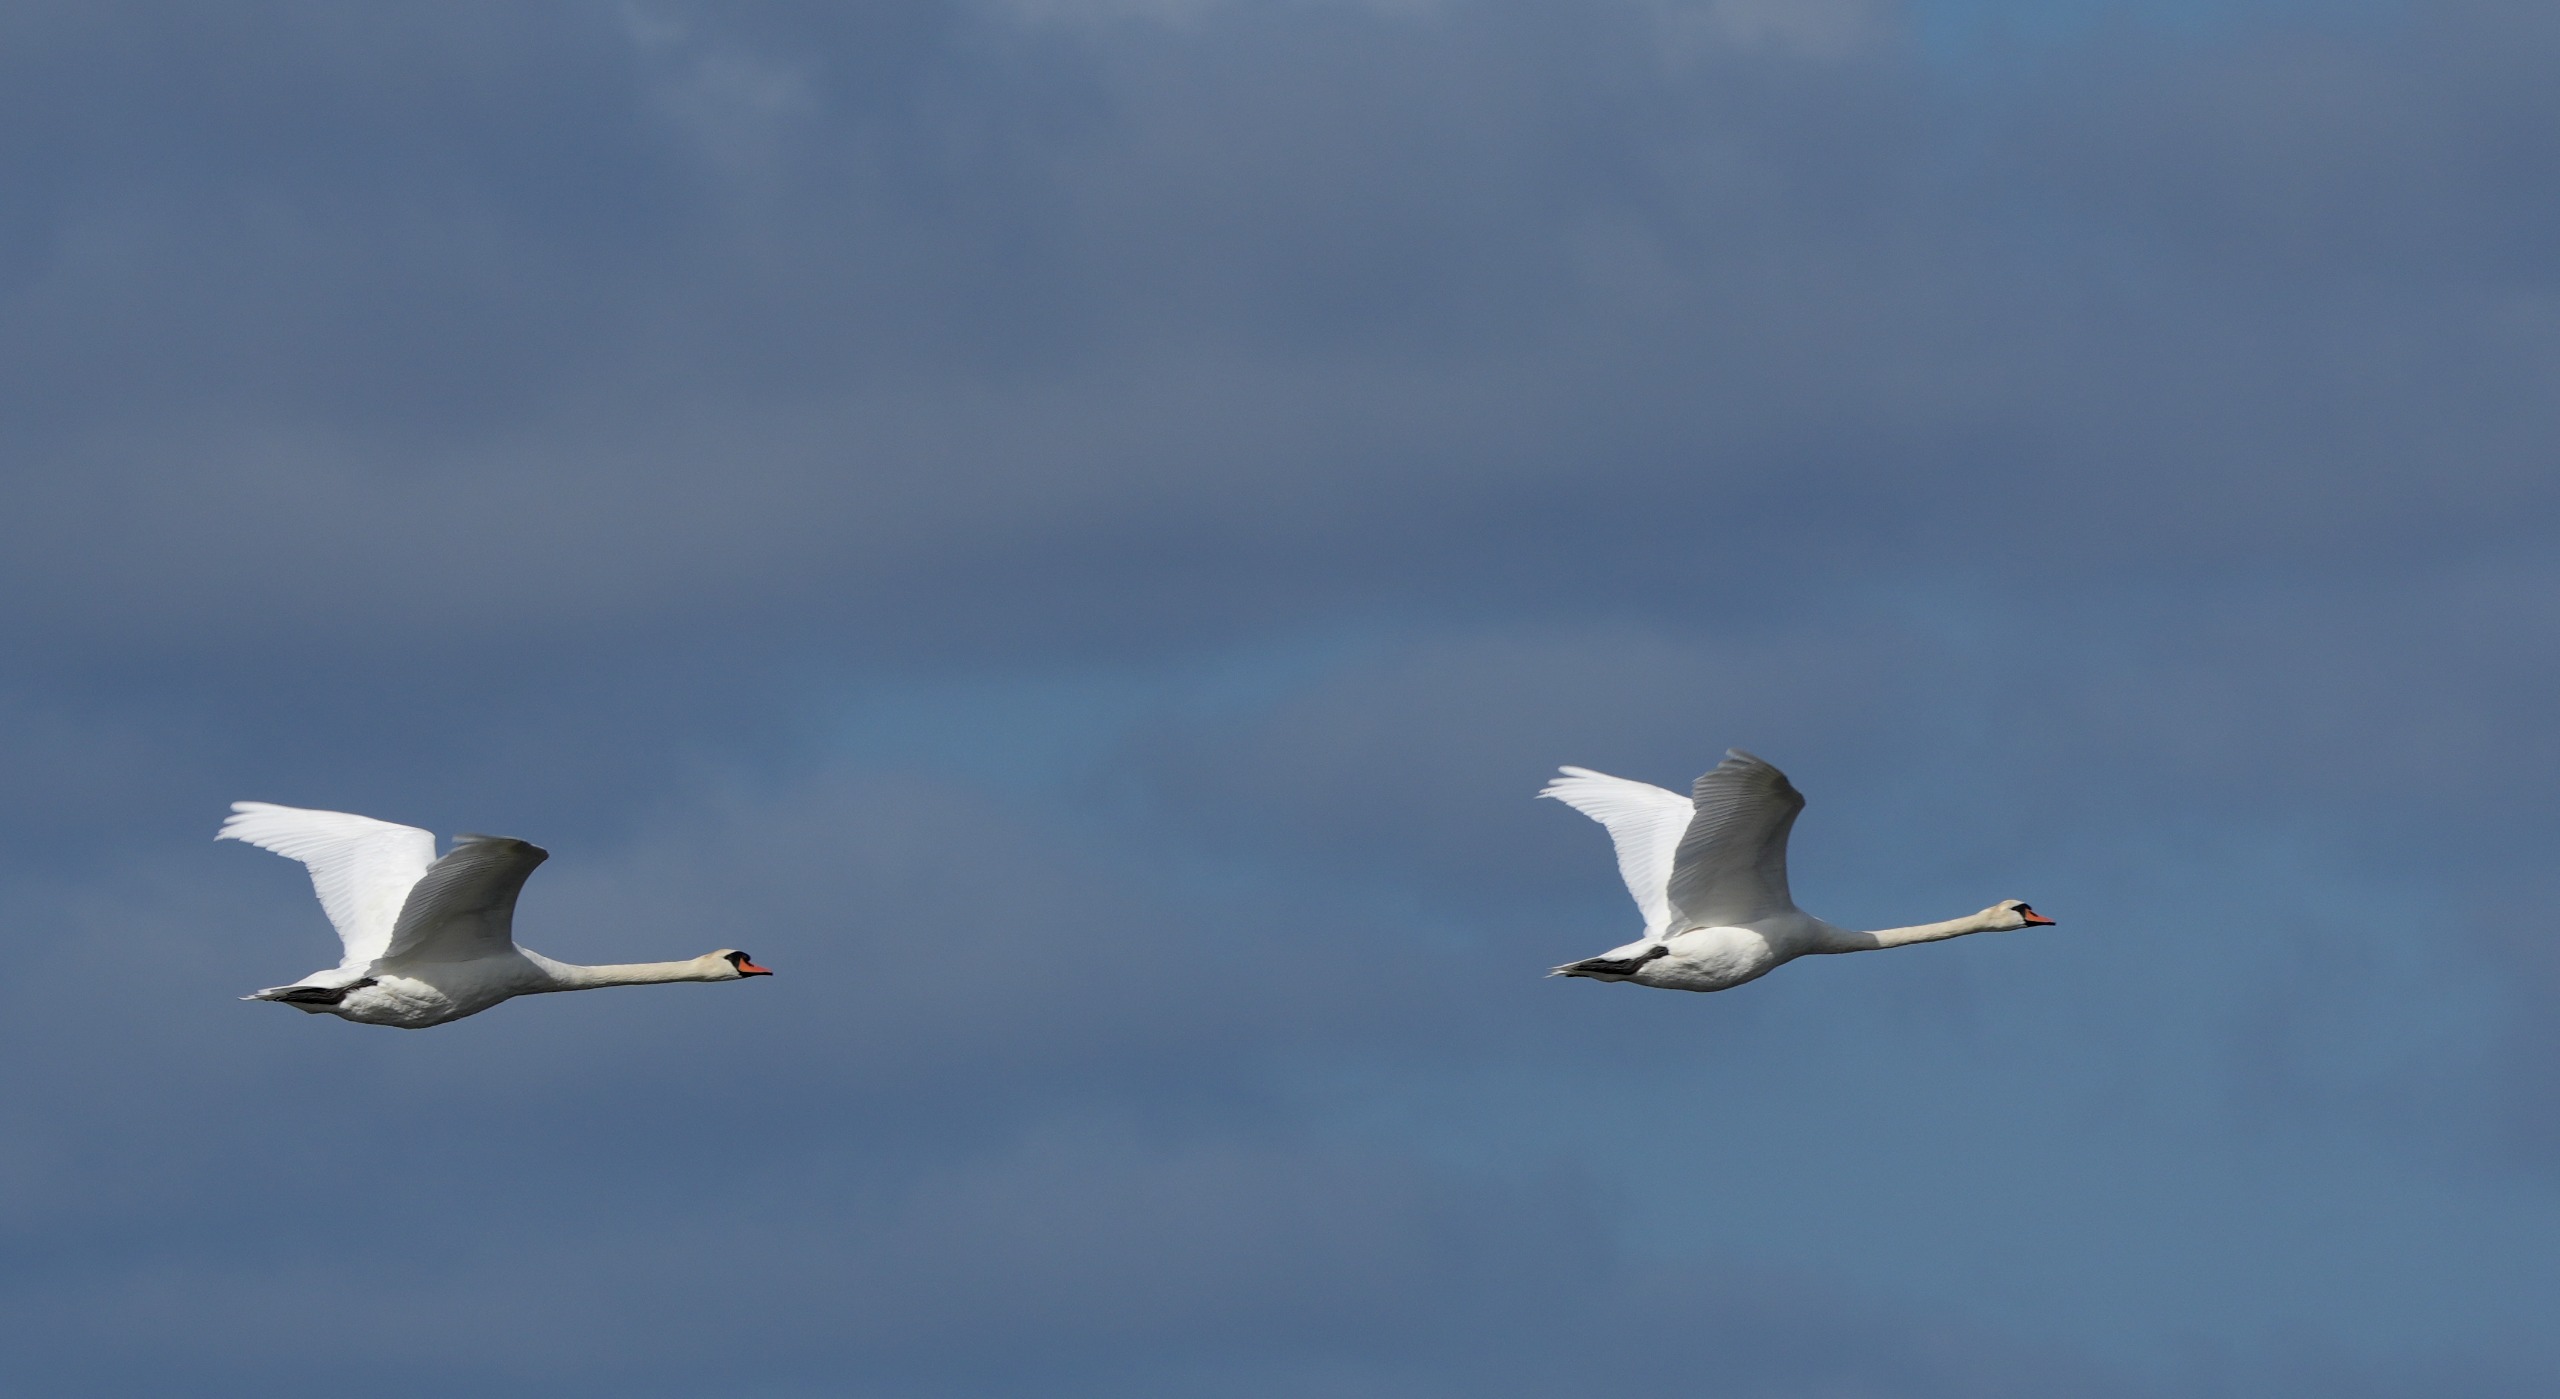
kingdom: Animalia
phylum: Chordata
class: Aves
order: Anseriformes
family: Anatidae
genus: Cygnus
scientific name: Cygnus olor
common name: Knopsvane
